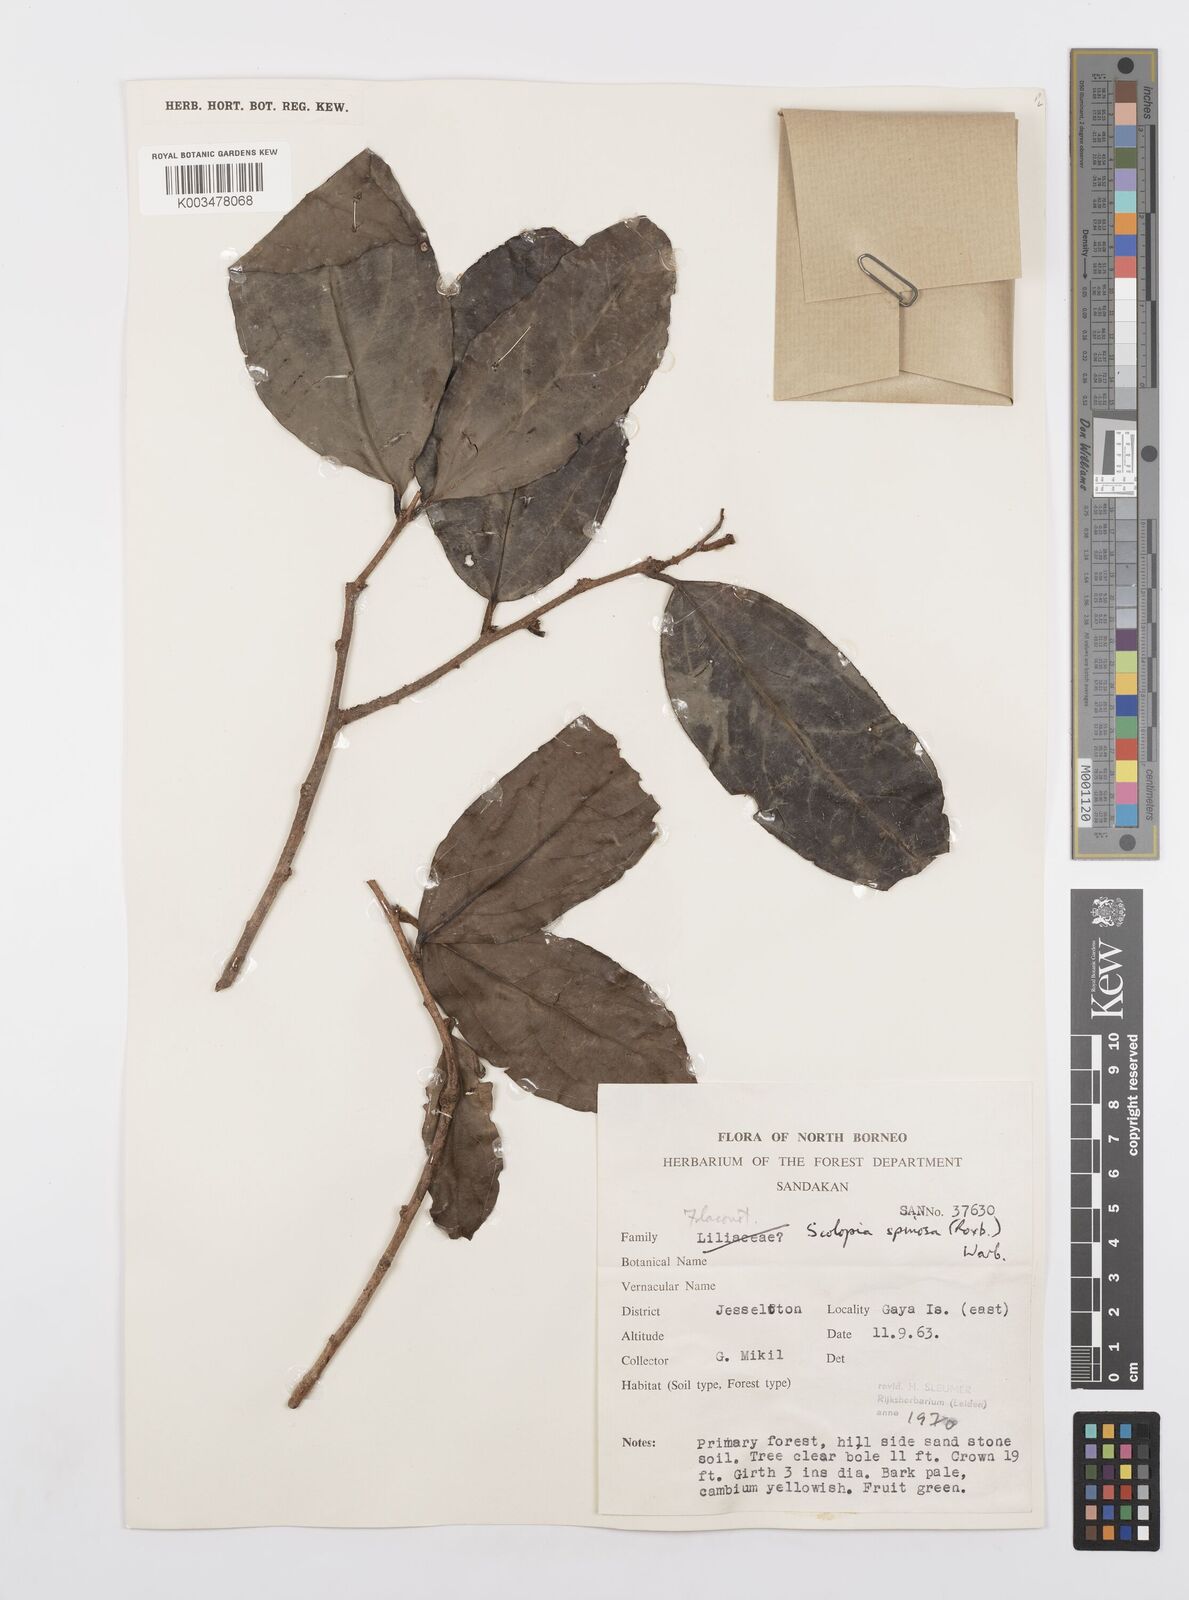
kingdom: Plantae
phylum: Tracheophyta
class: Magnoliopsida
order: Malpighiales
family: Salicaceae
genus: Scolopia
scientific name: Scolopia spinosa
